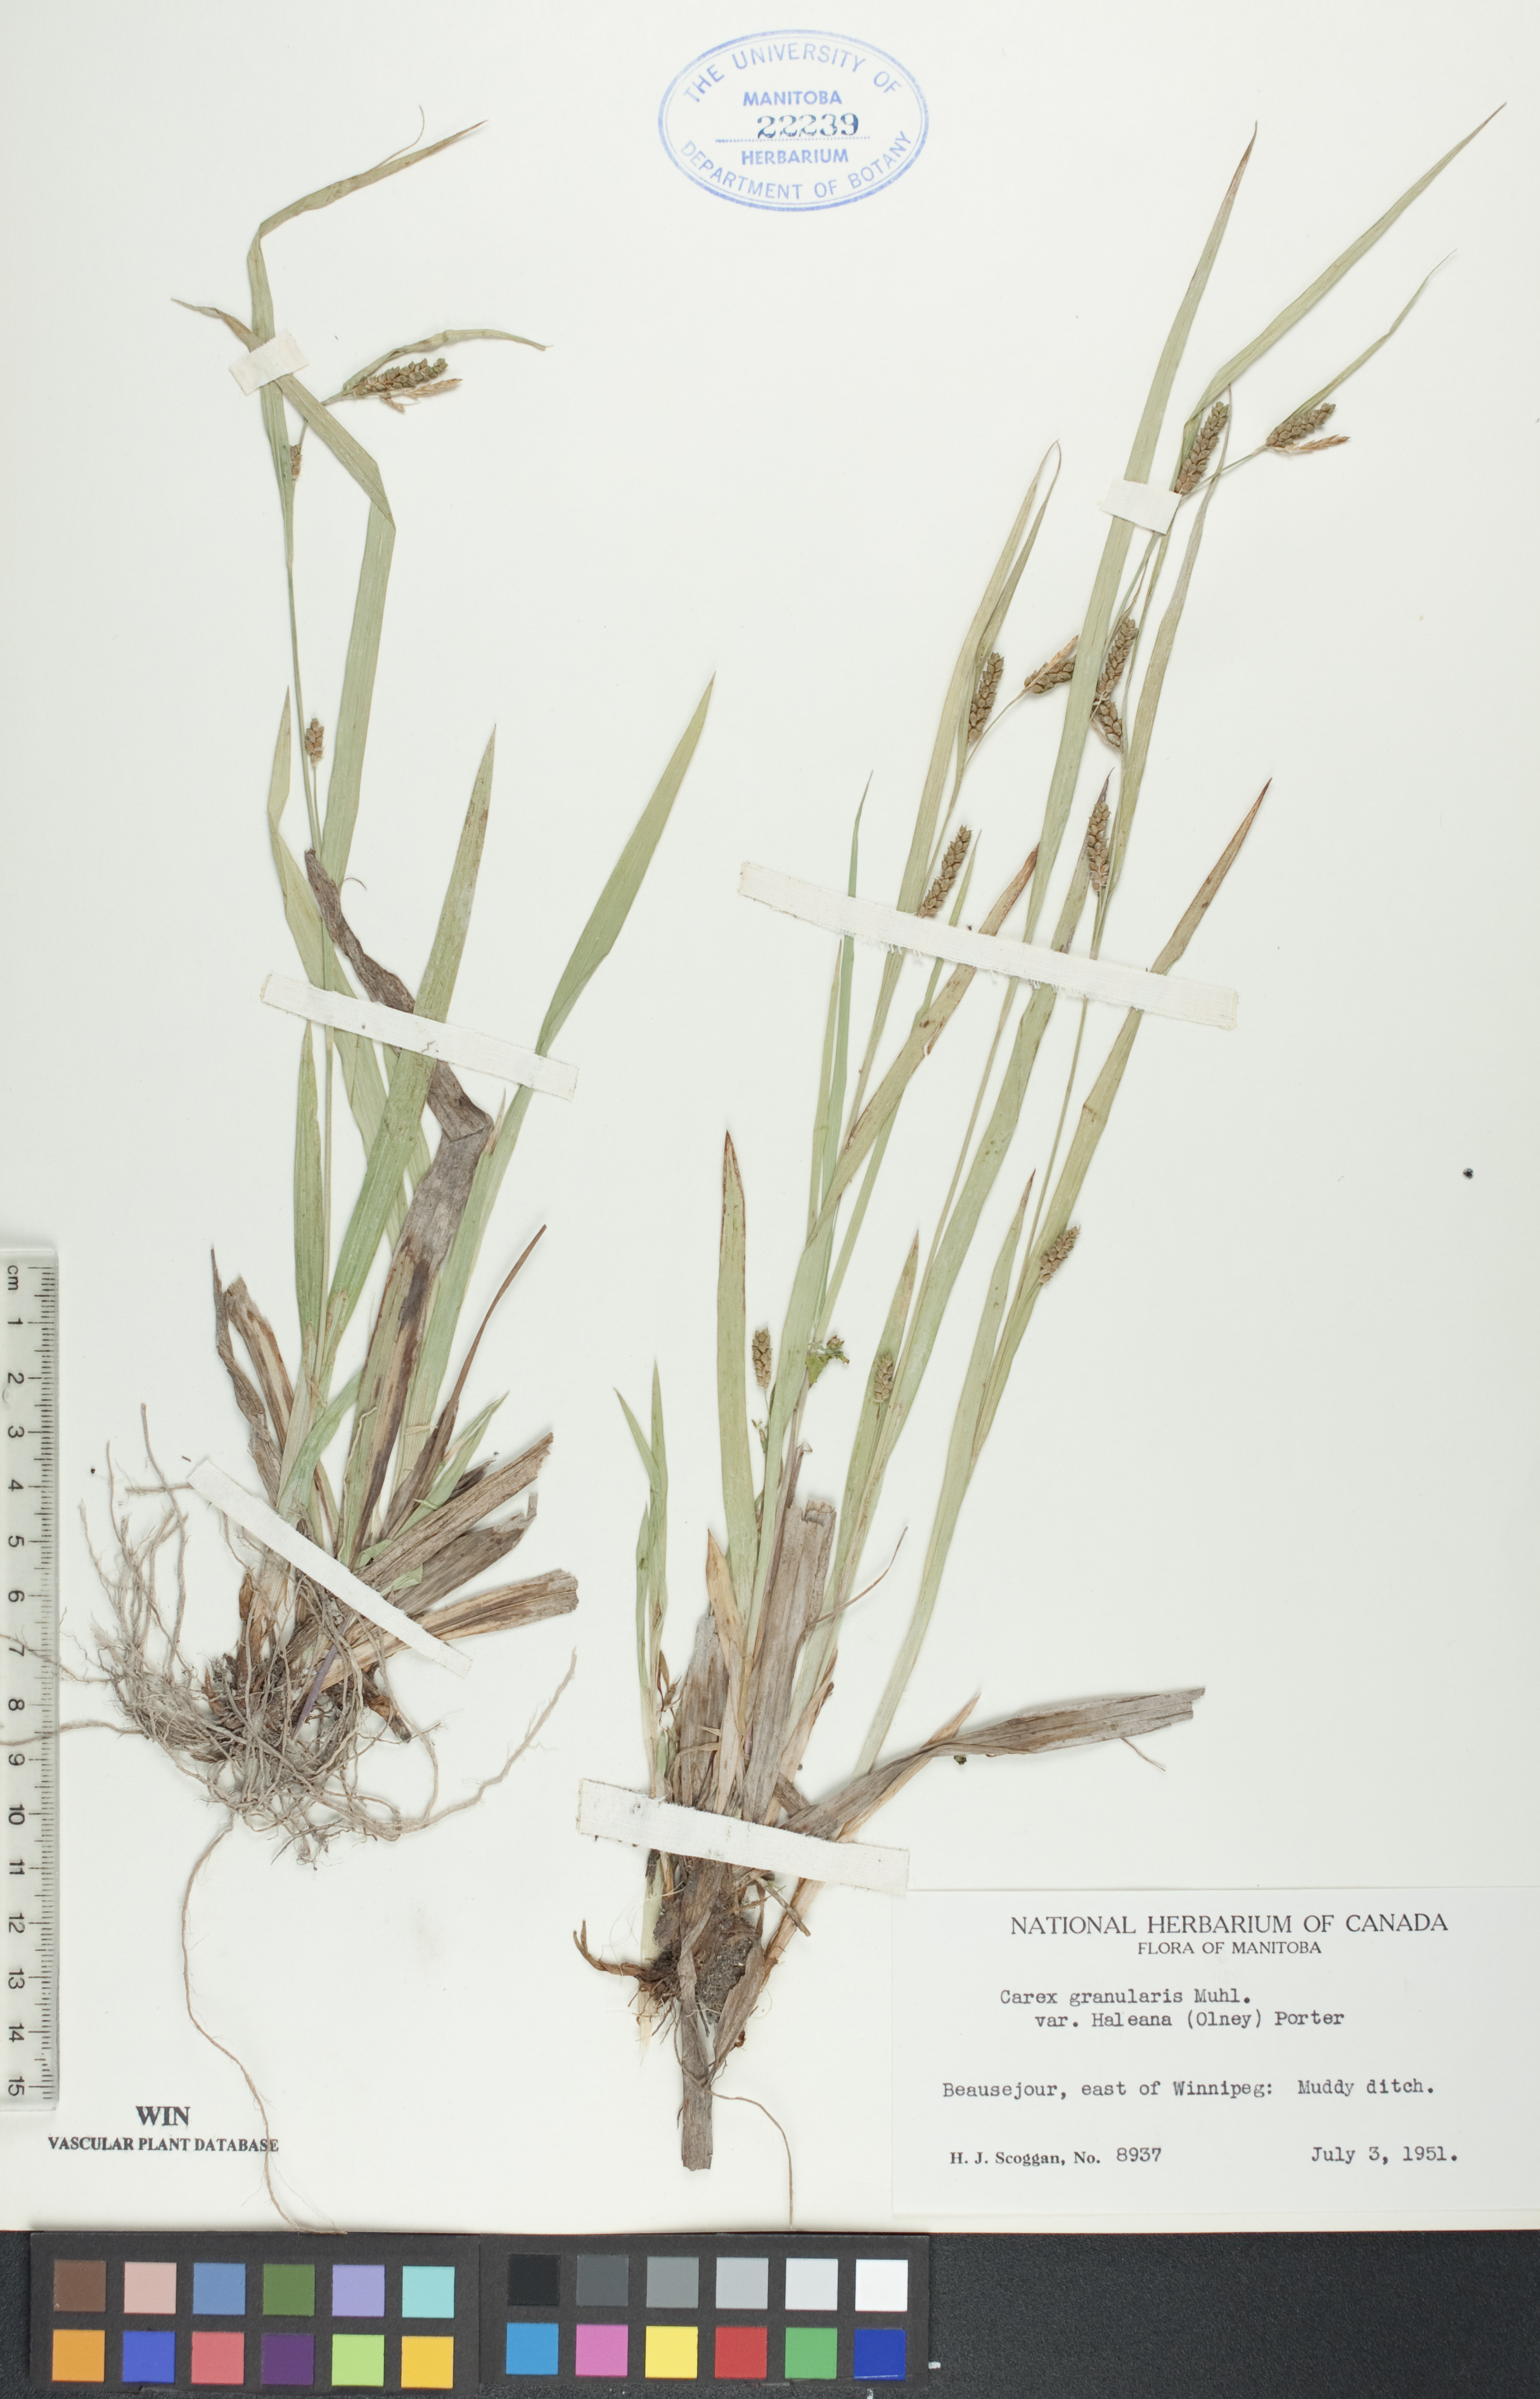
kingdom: Plantae
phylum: Tracheophyta
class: Liliopsida
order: Poales
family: Cyperaceae
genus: Carex
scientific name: Carex granularis
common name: Granular sedge
